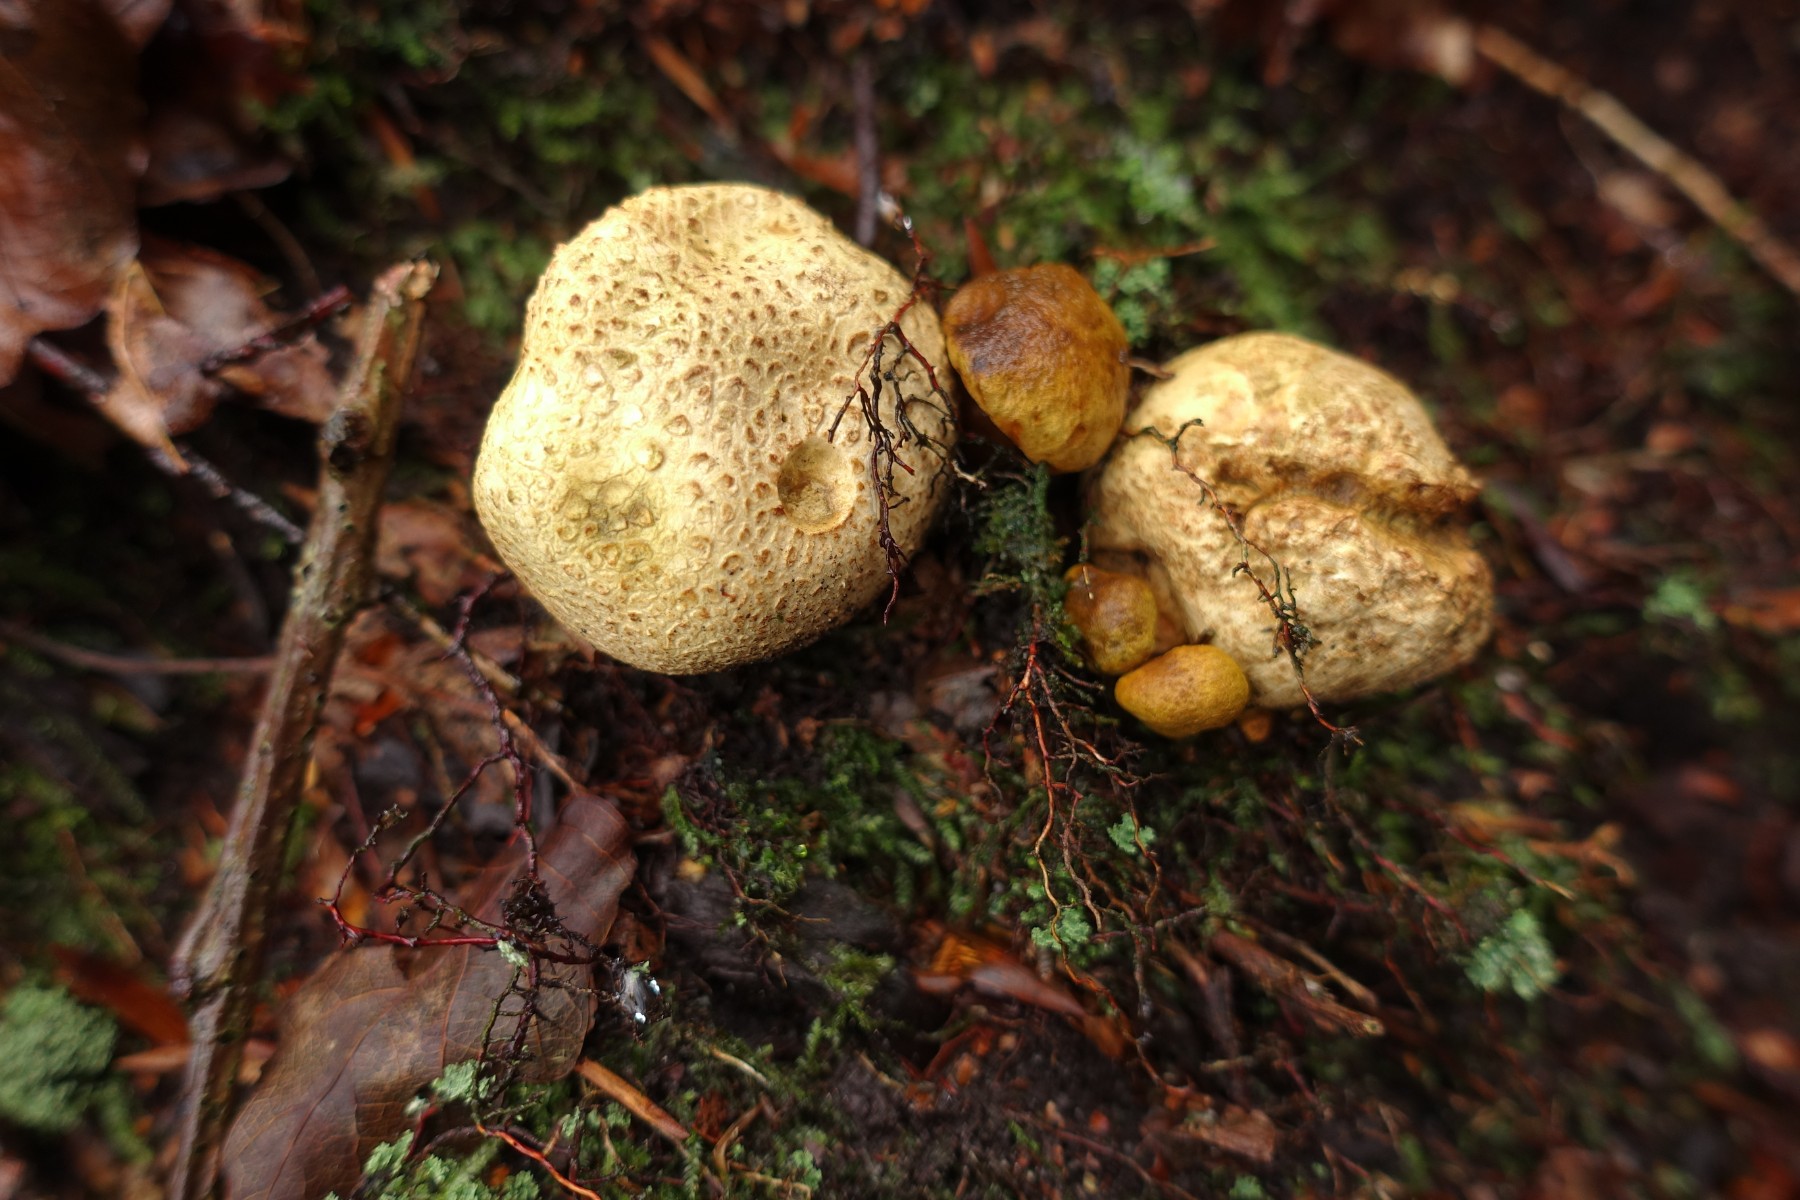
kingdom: Fungi
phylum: Basidiomycota
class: Agaricomycetes
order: Boletales
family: Boletaceae
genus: Pseudoboletus
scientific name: Pseudoboletus parasiticus
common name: snyltende rørhat
